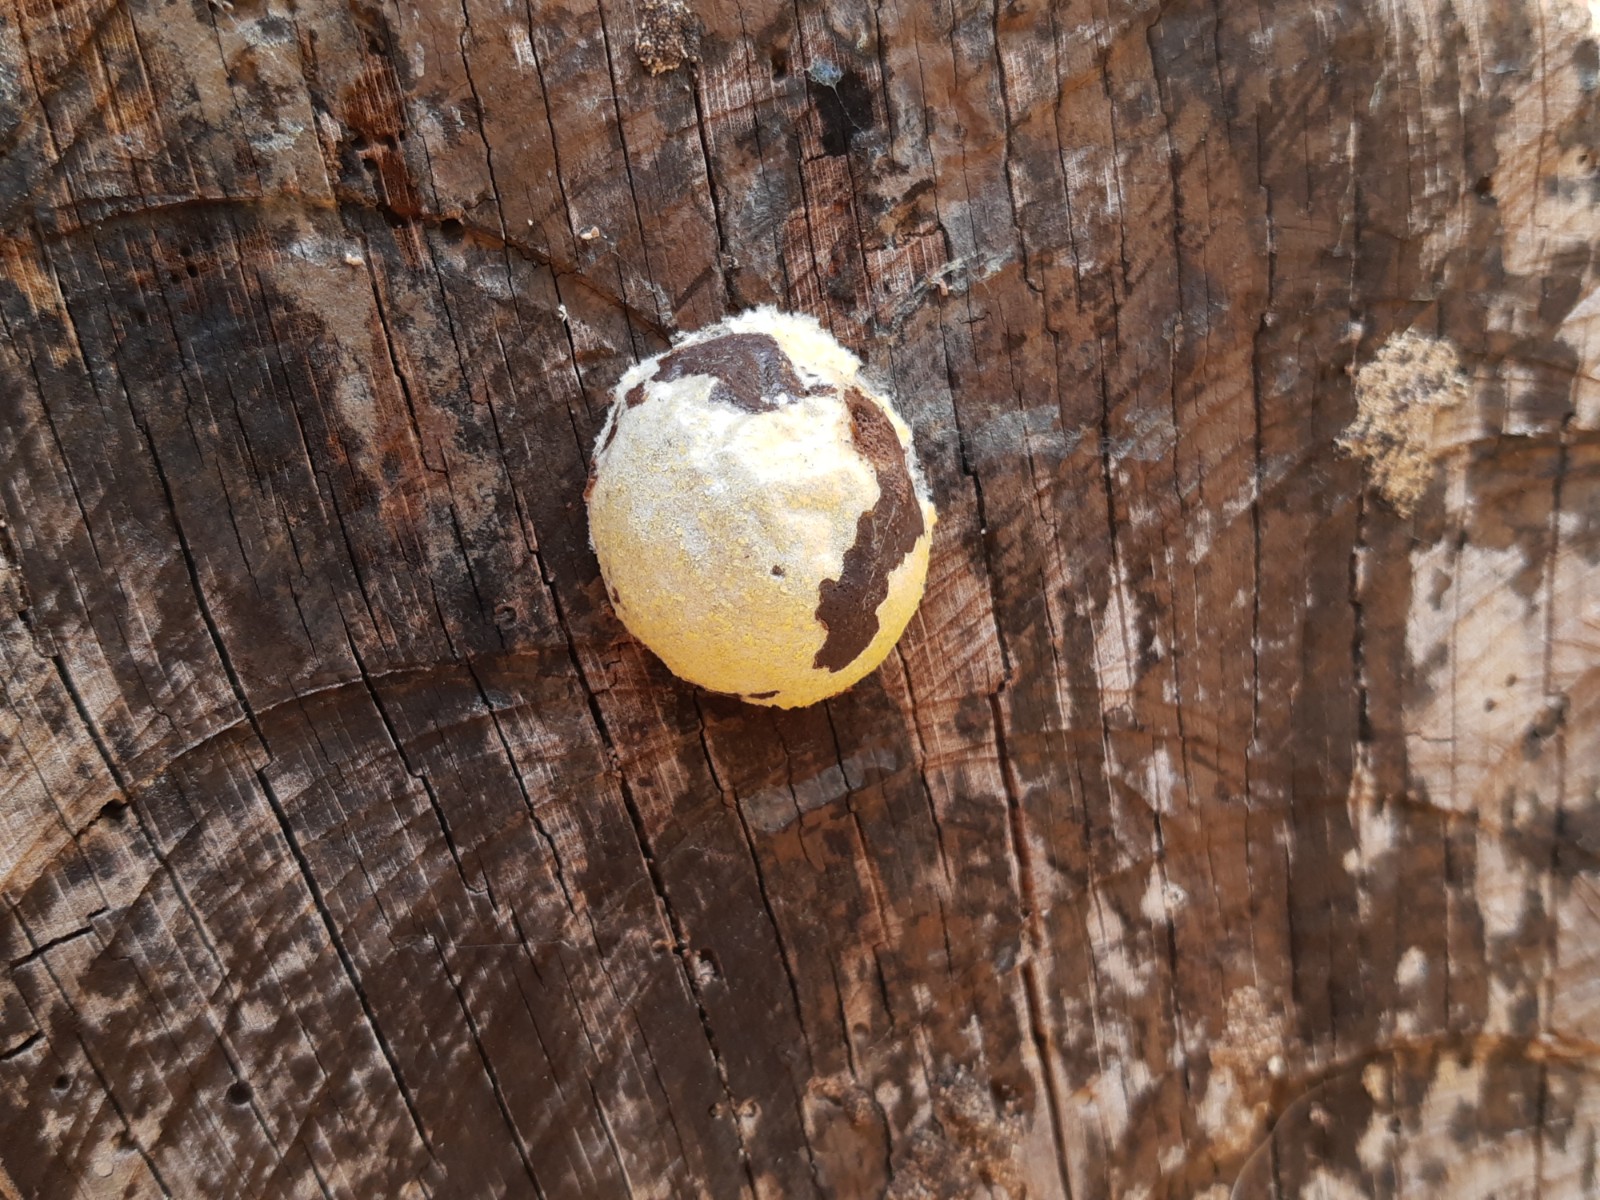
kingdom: Protozoa
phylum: Mycetozoa
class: Myxomycetes
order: Cribrariales
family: Tubiferaceae
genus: Reticularia
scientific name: Reticularia lycoperdon
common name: skinnende støvpude
